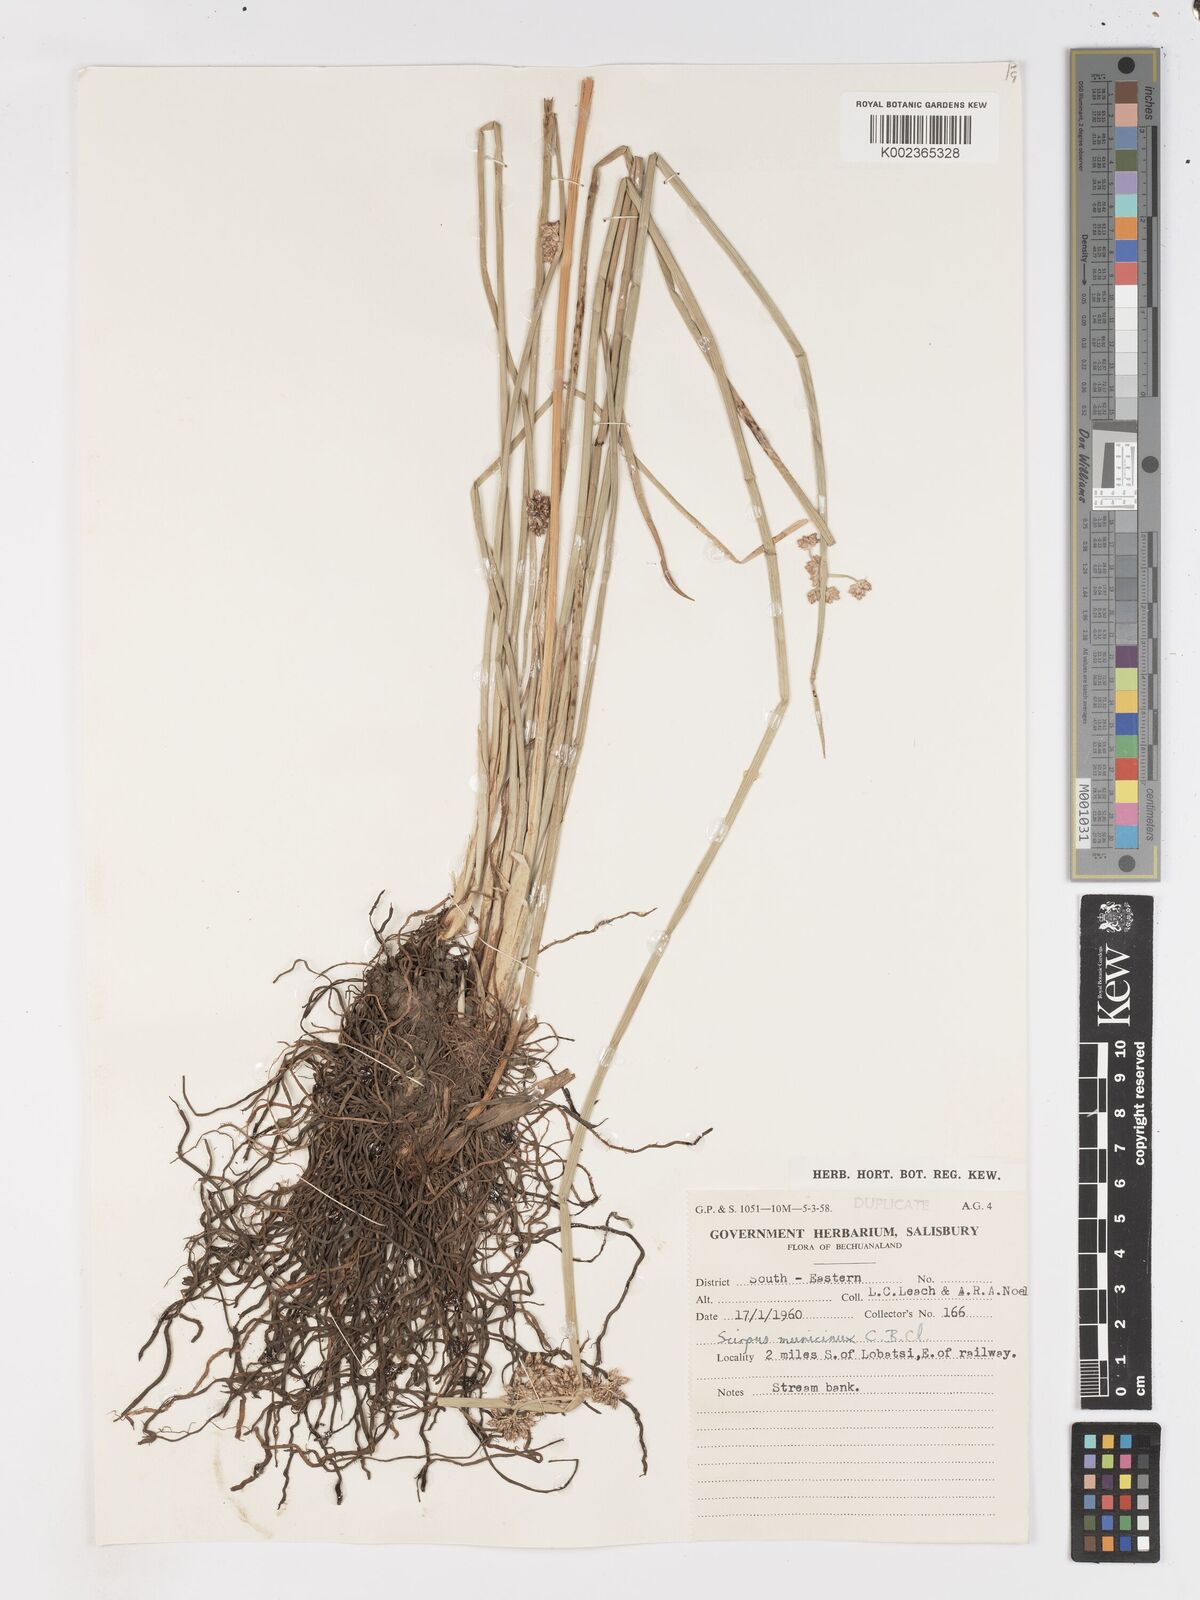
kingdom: Plantae
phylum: Tracheophyta
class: Liliopsida
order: Poales
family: Cyperaceae
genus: Schoenoplectus
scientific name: Schoenoplectus
